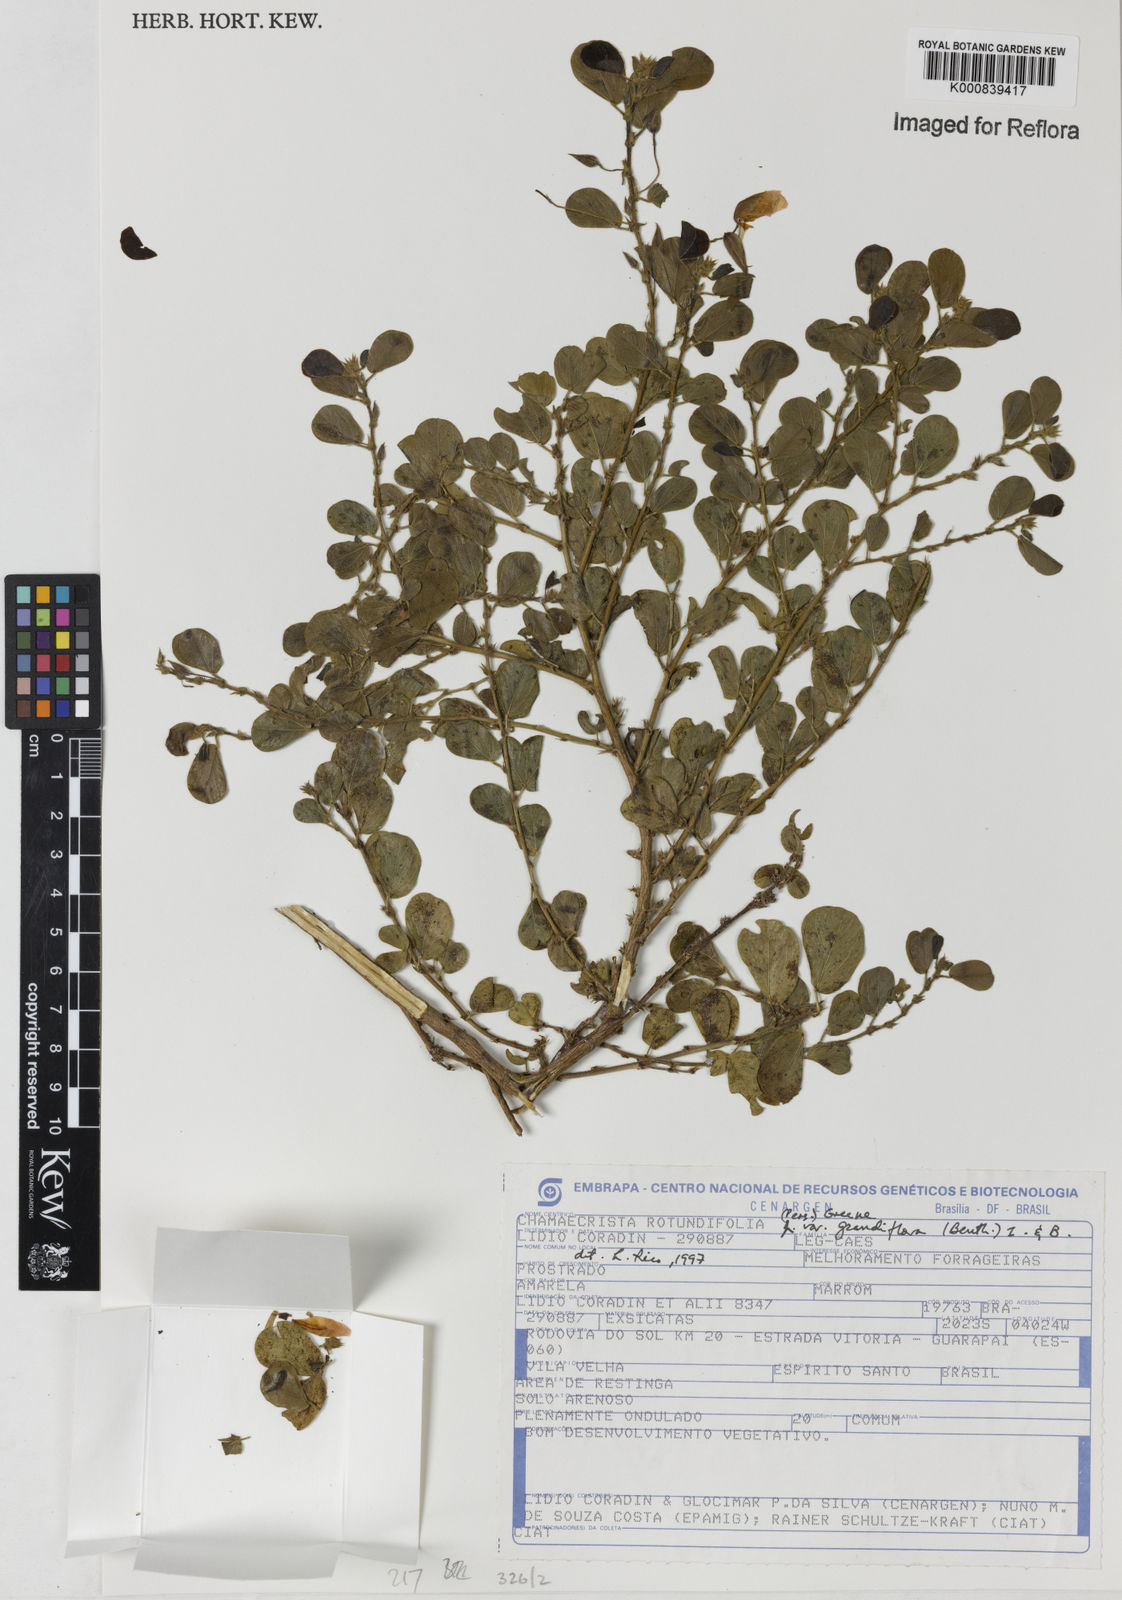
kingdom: Plantae
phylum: Tracheophyta
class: Magnoliopsida
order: Fabales
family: Fabaceae
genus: Chamaecrista
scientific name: Chamaecrista rotundifolia
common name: Round-leaf cassia
